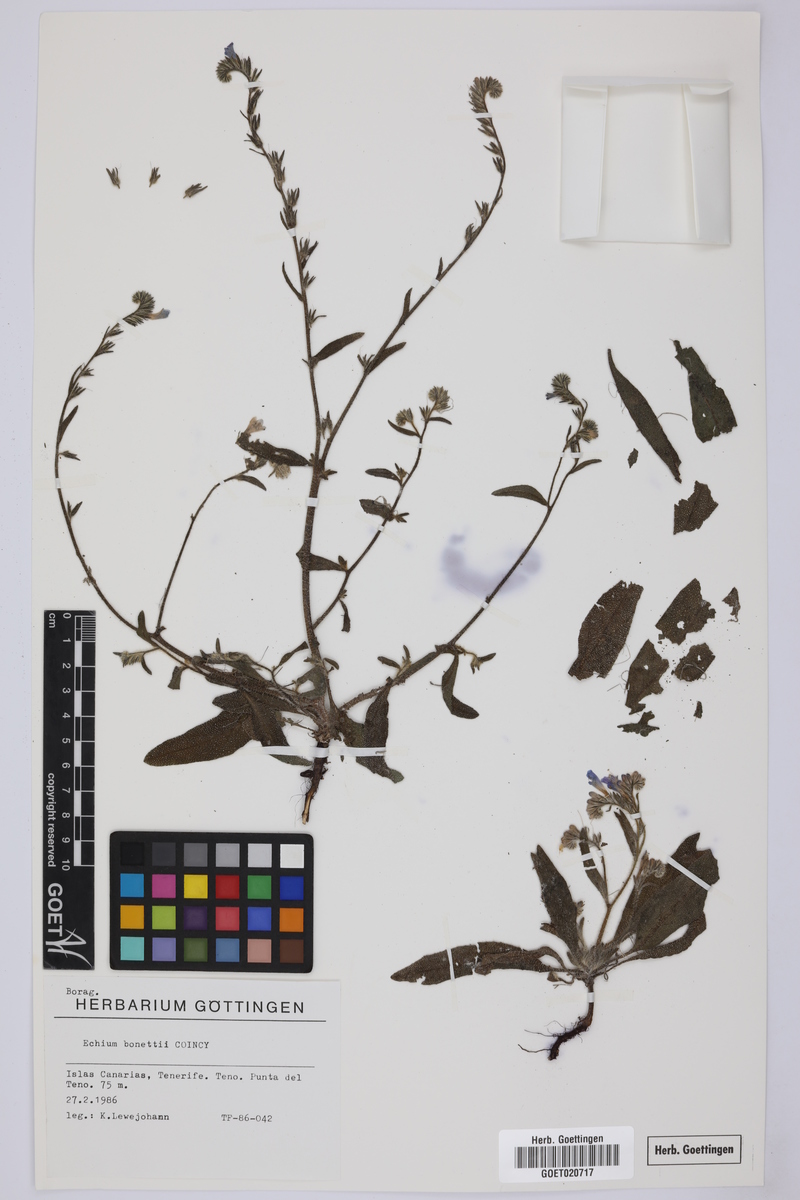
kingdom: Plantae
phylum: Tracheophyta
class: Magnoliopsida
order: Boraginales
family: Boraginaceae
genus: Echium
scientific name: Echium bonnetii
